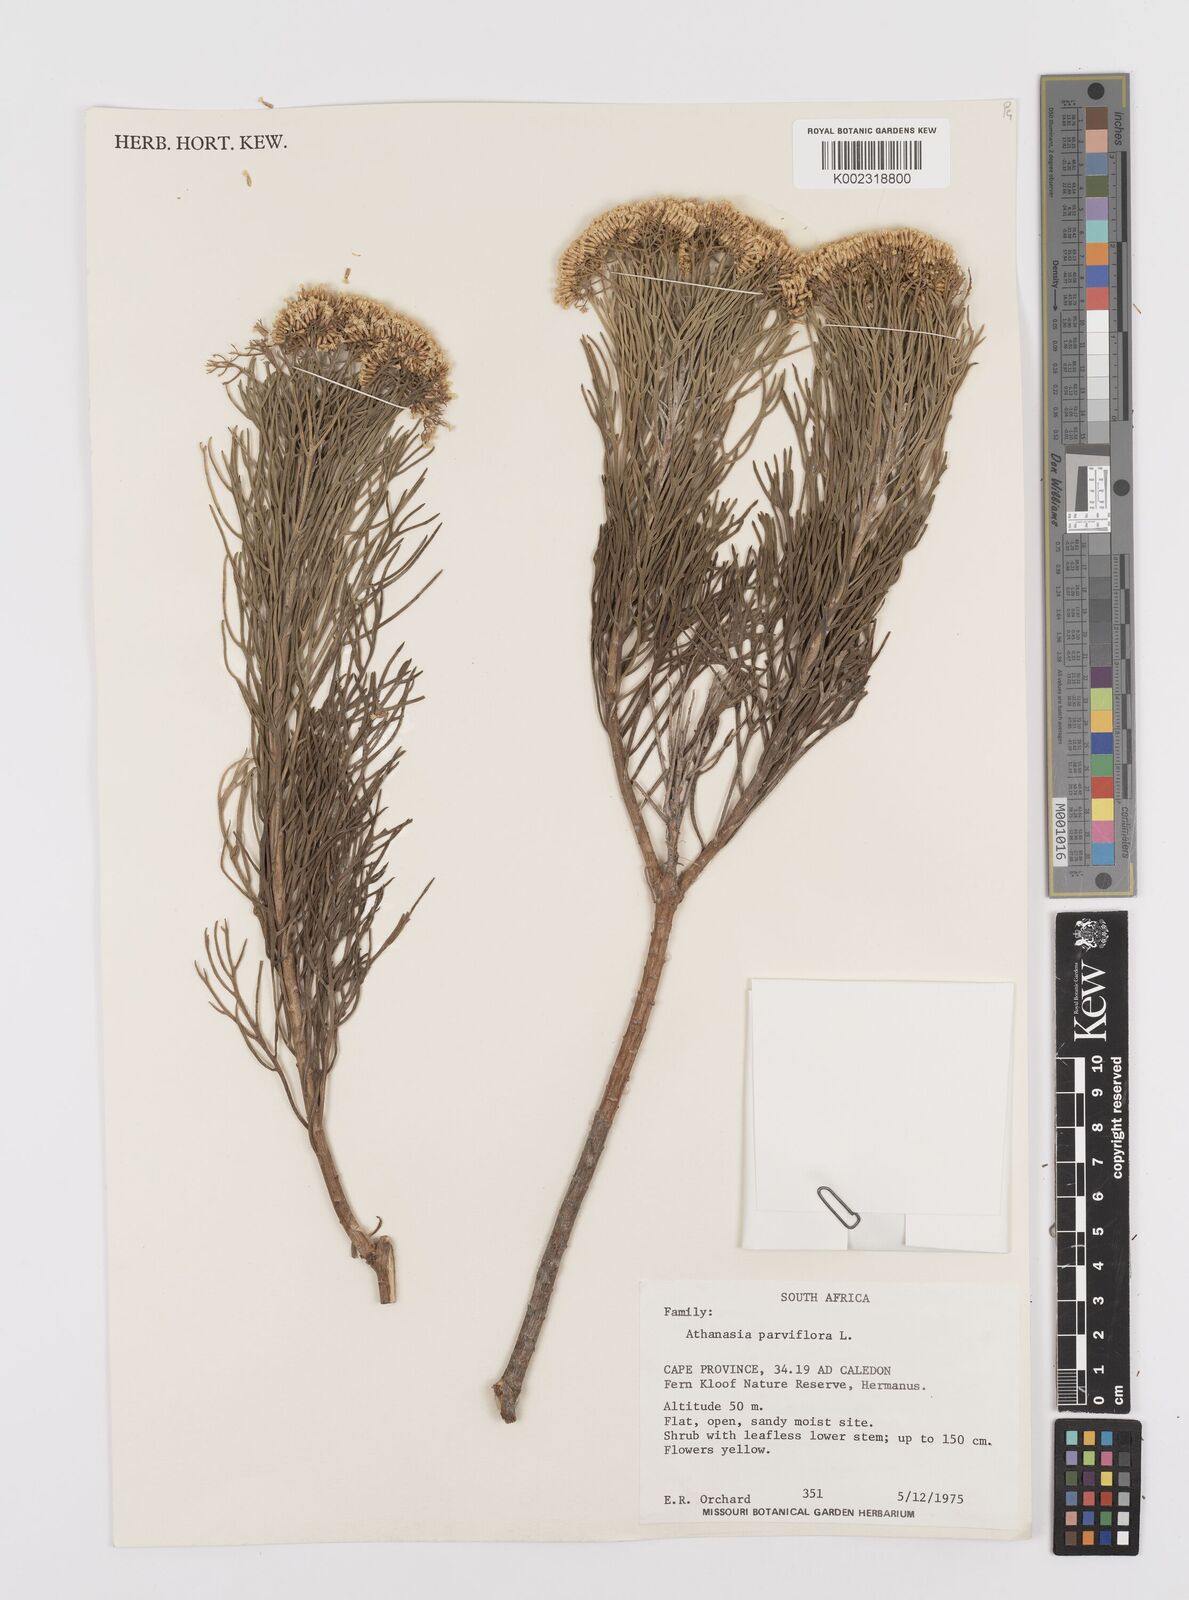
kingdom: Plantae
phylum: Tracheophyta
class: Magnoliopsida
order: Asterales
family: Asteraceae
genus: Hymenolepis
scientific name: Hymenolepis crithmifolia
